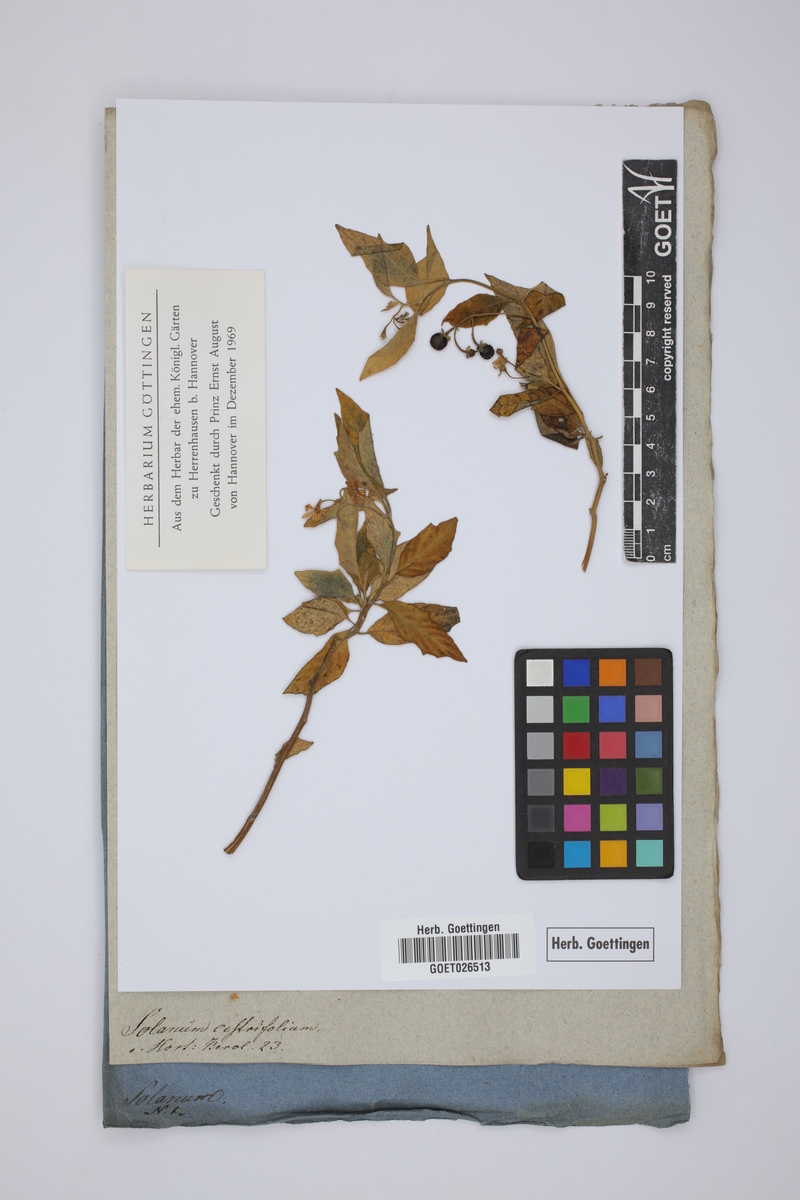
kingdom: Plantae
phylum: Tracheophyta
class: Magnoliopsida
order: Solanales
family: Solanaceae
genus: Solanum
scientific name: Solanum nigrum
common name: Black nightshade
